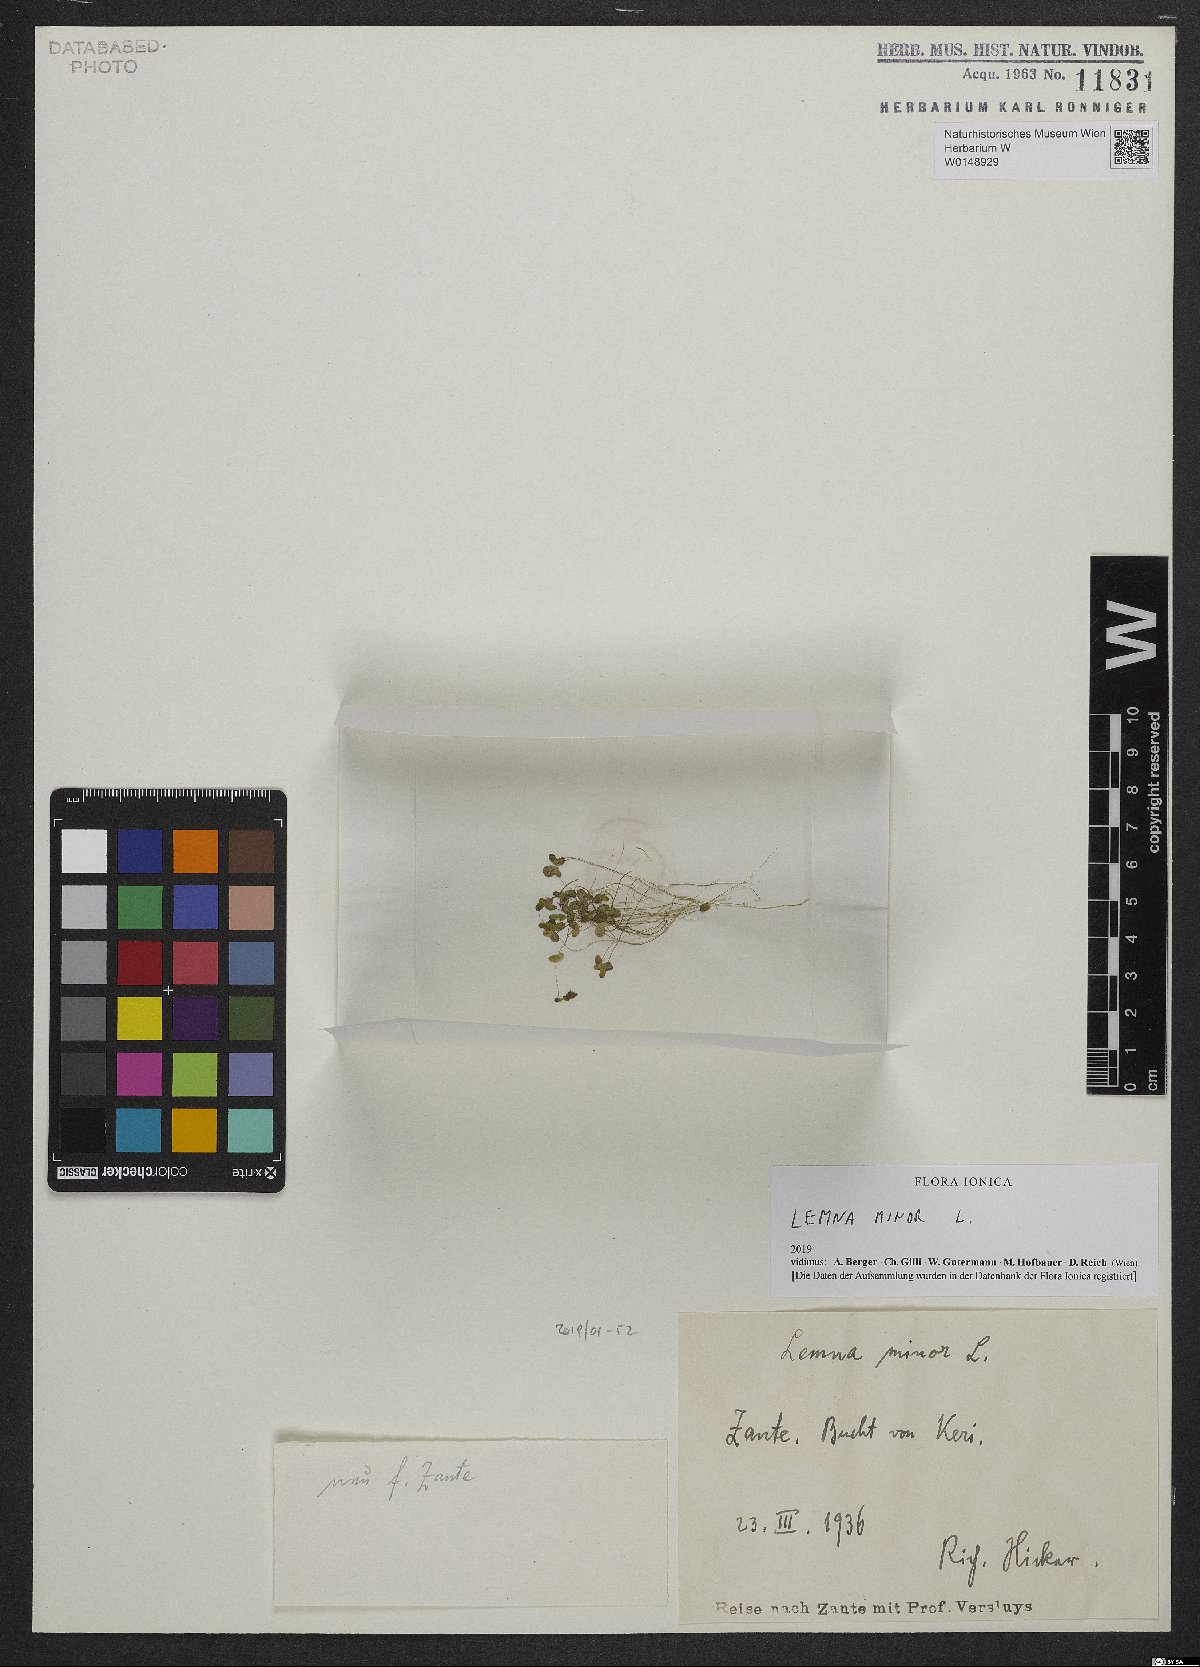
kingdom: Plantae
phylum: Tracheophyta
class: Liliopsida
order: Alismatales
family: Araceae
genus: Lemna
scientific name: Lemna minor
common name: Common duckweed
